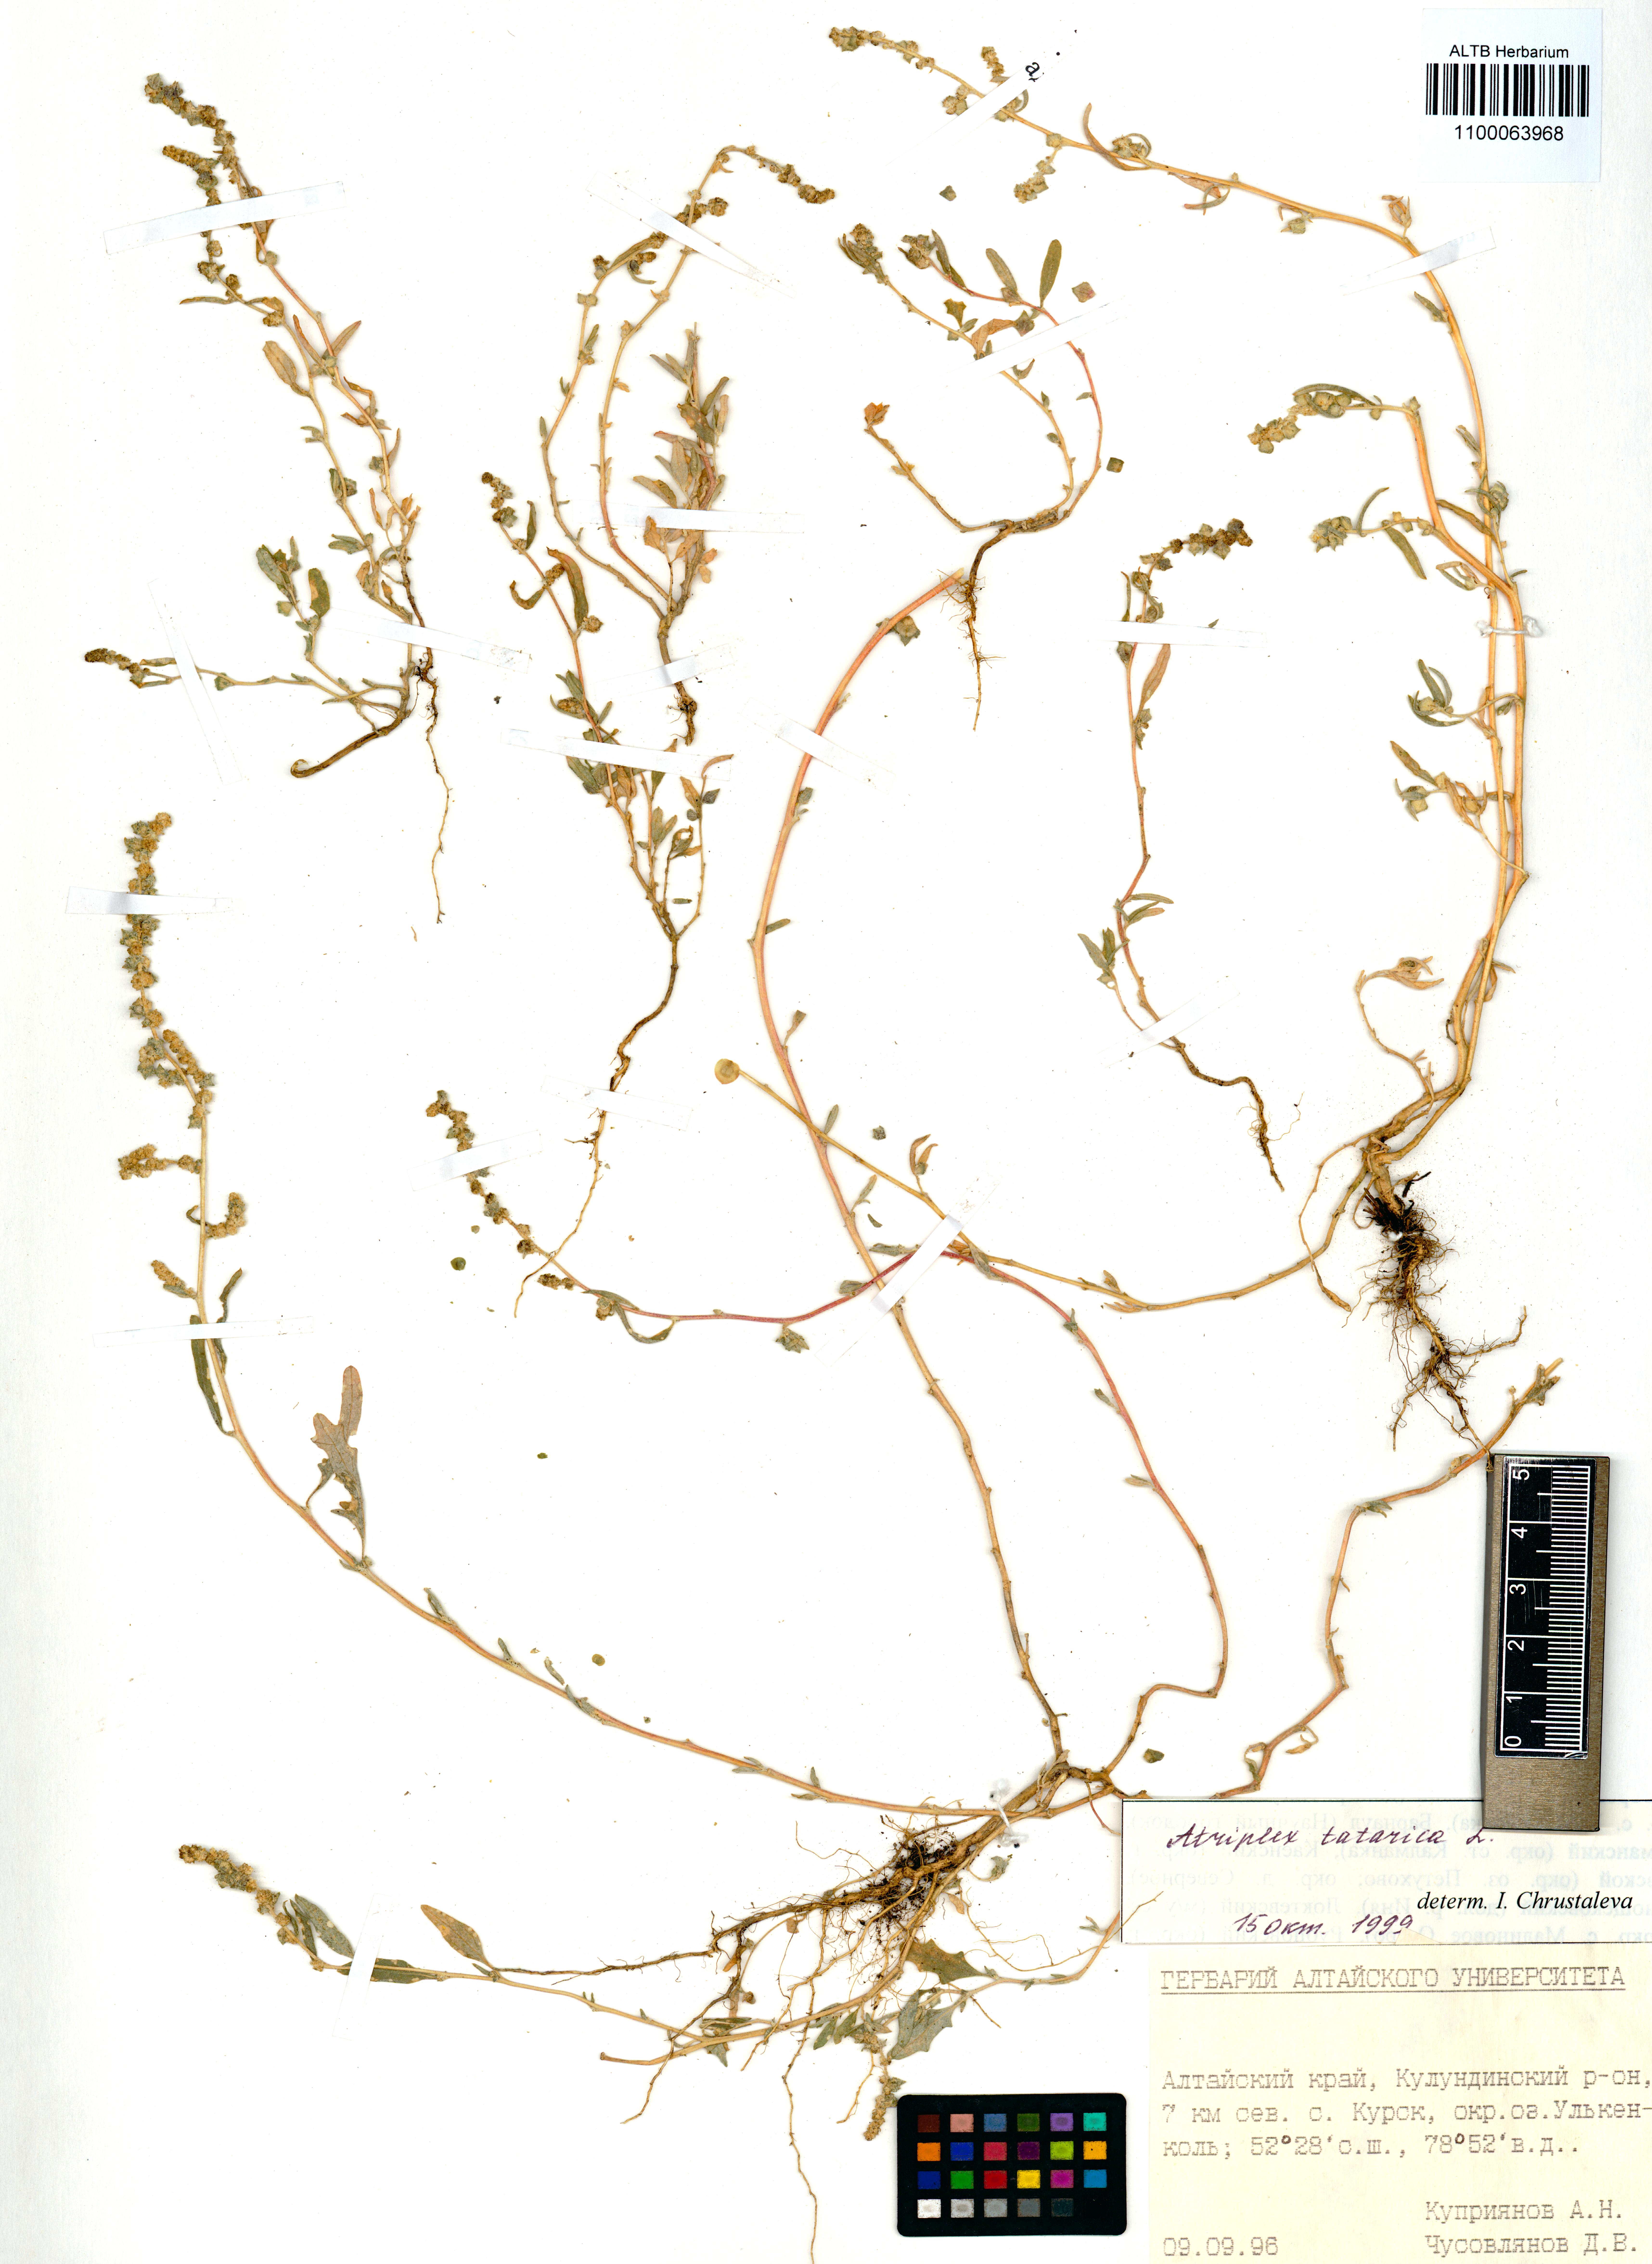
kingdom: Plantae
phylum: Tracheophyta
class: Magnoliopsida
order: Caryophyllales
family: Amaranthaceae
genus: Atriplex
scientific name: Atriplex tatarica
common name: Tatarian orache
